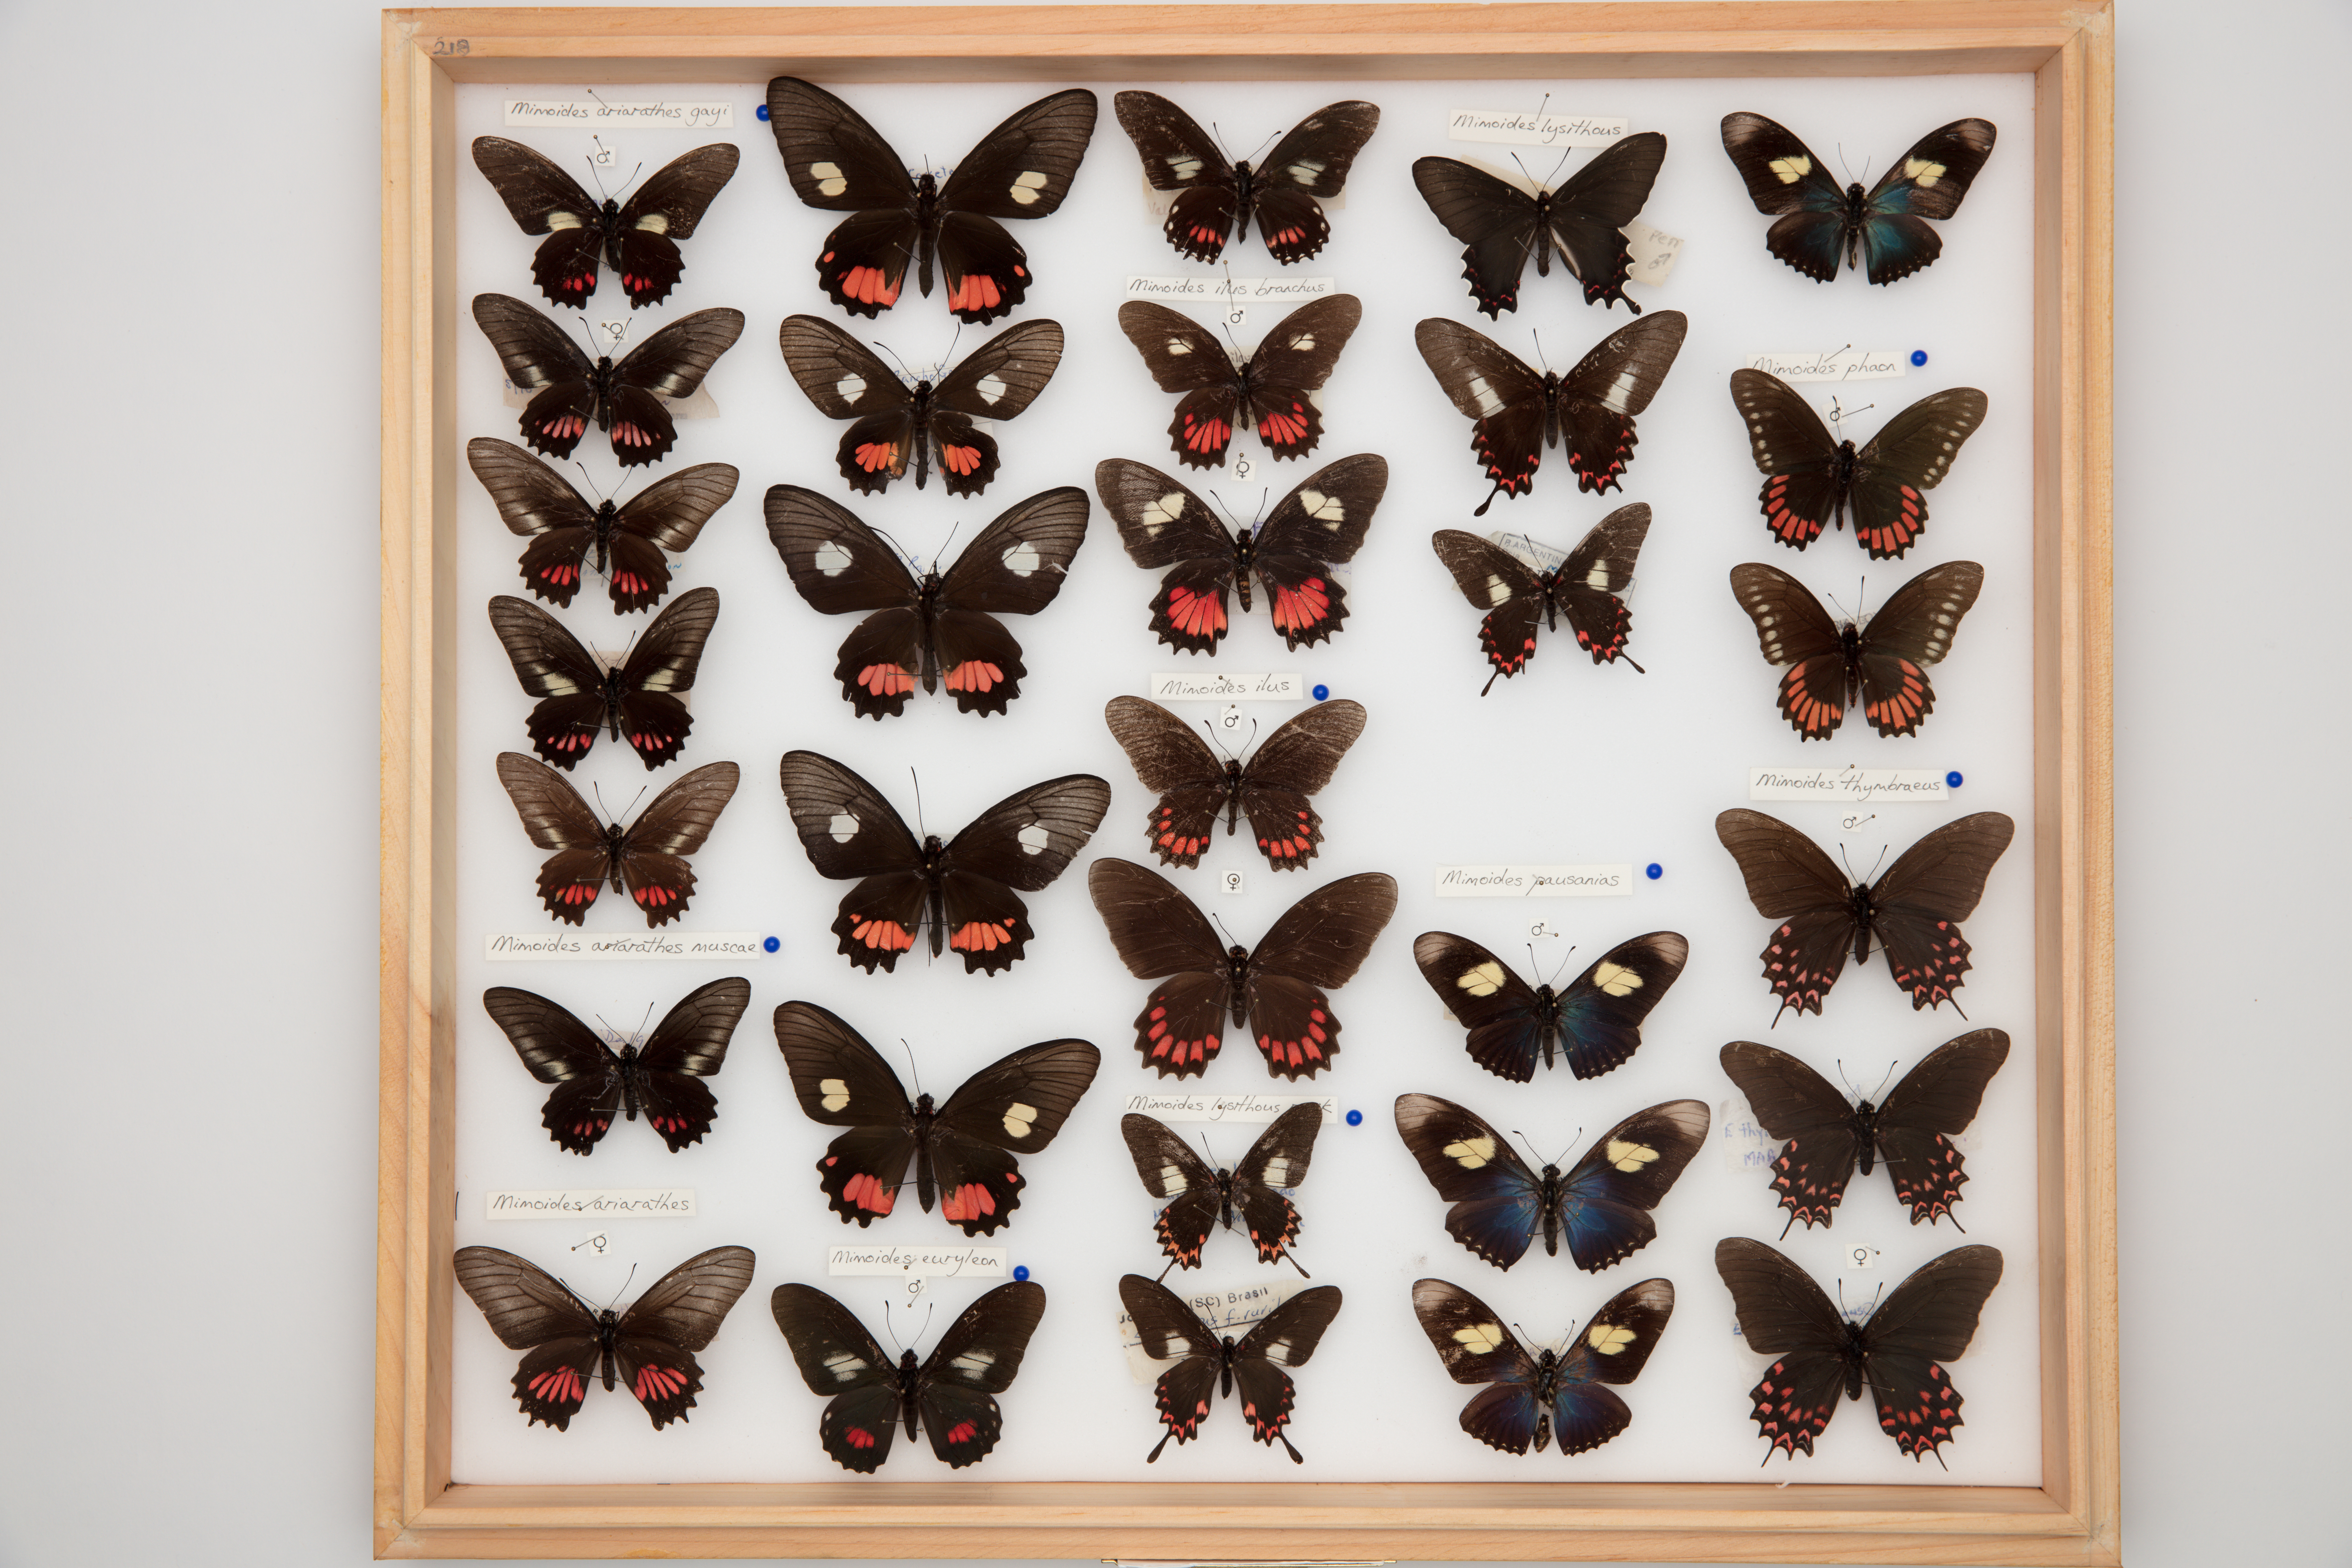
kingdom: Animalia
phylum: Arthropoda
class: Insecta
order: Lepidoptera
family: Papilionidae
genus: Eurytides
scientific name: Eurytides lysithous
